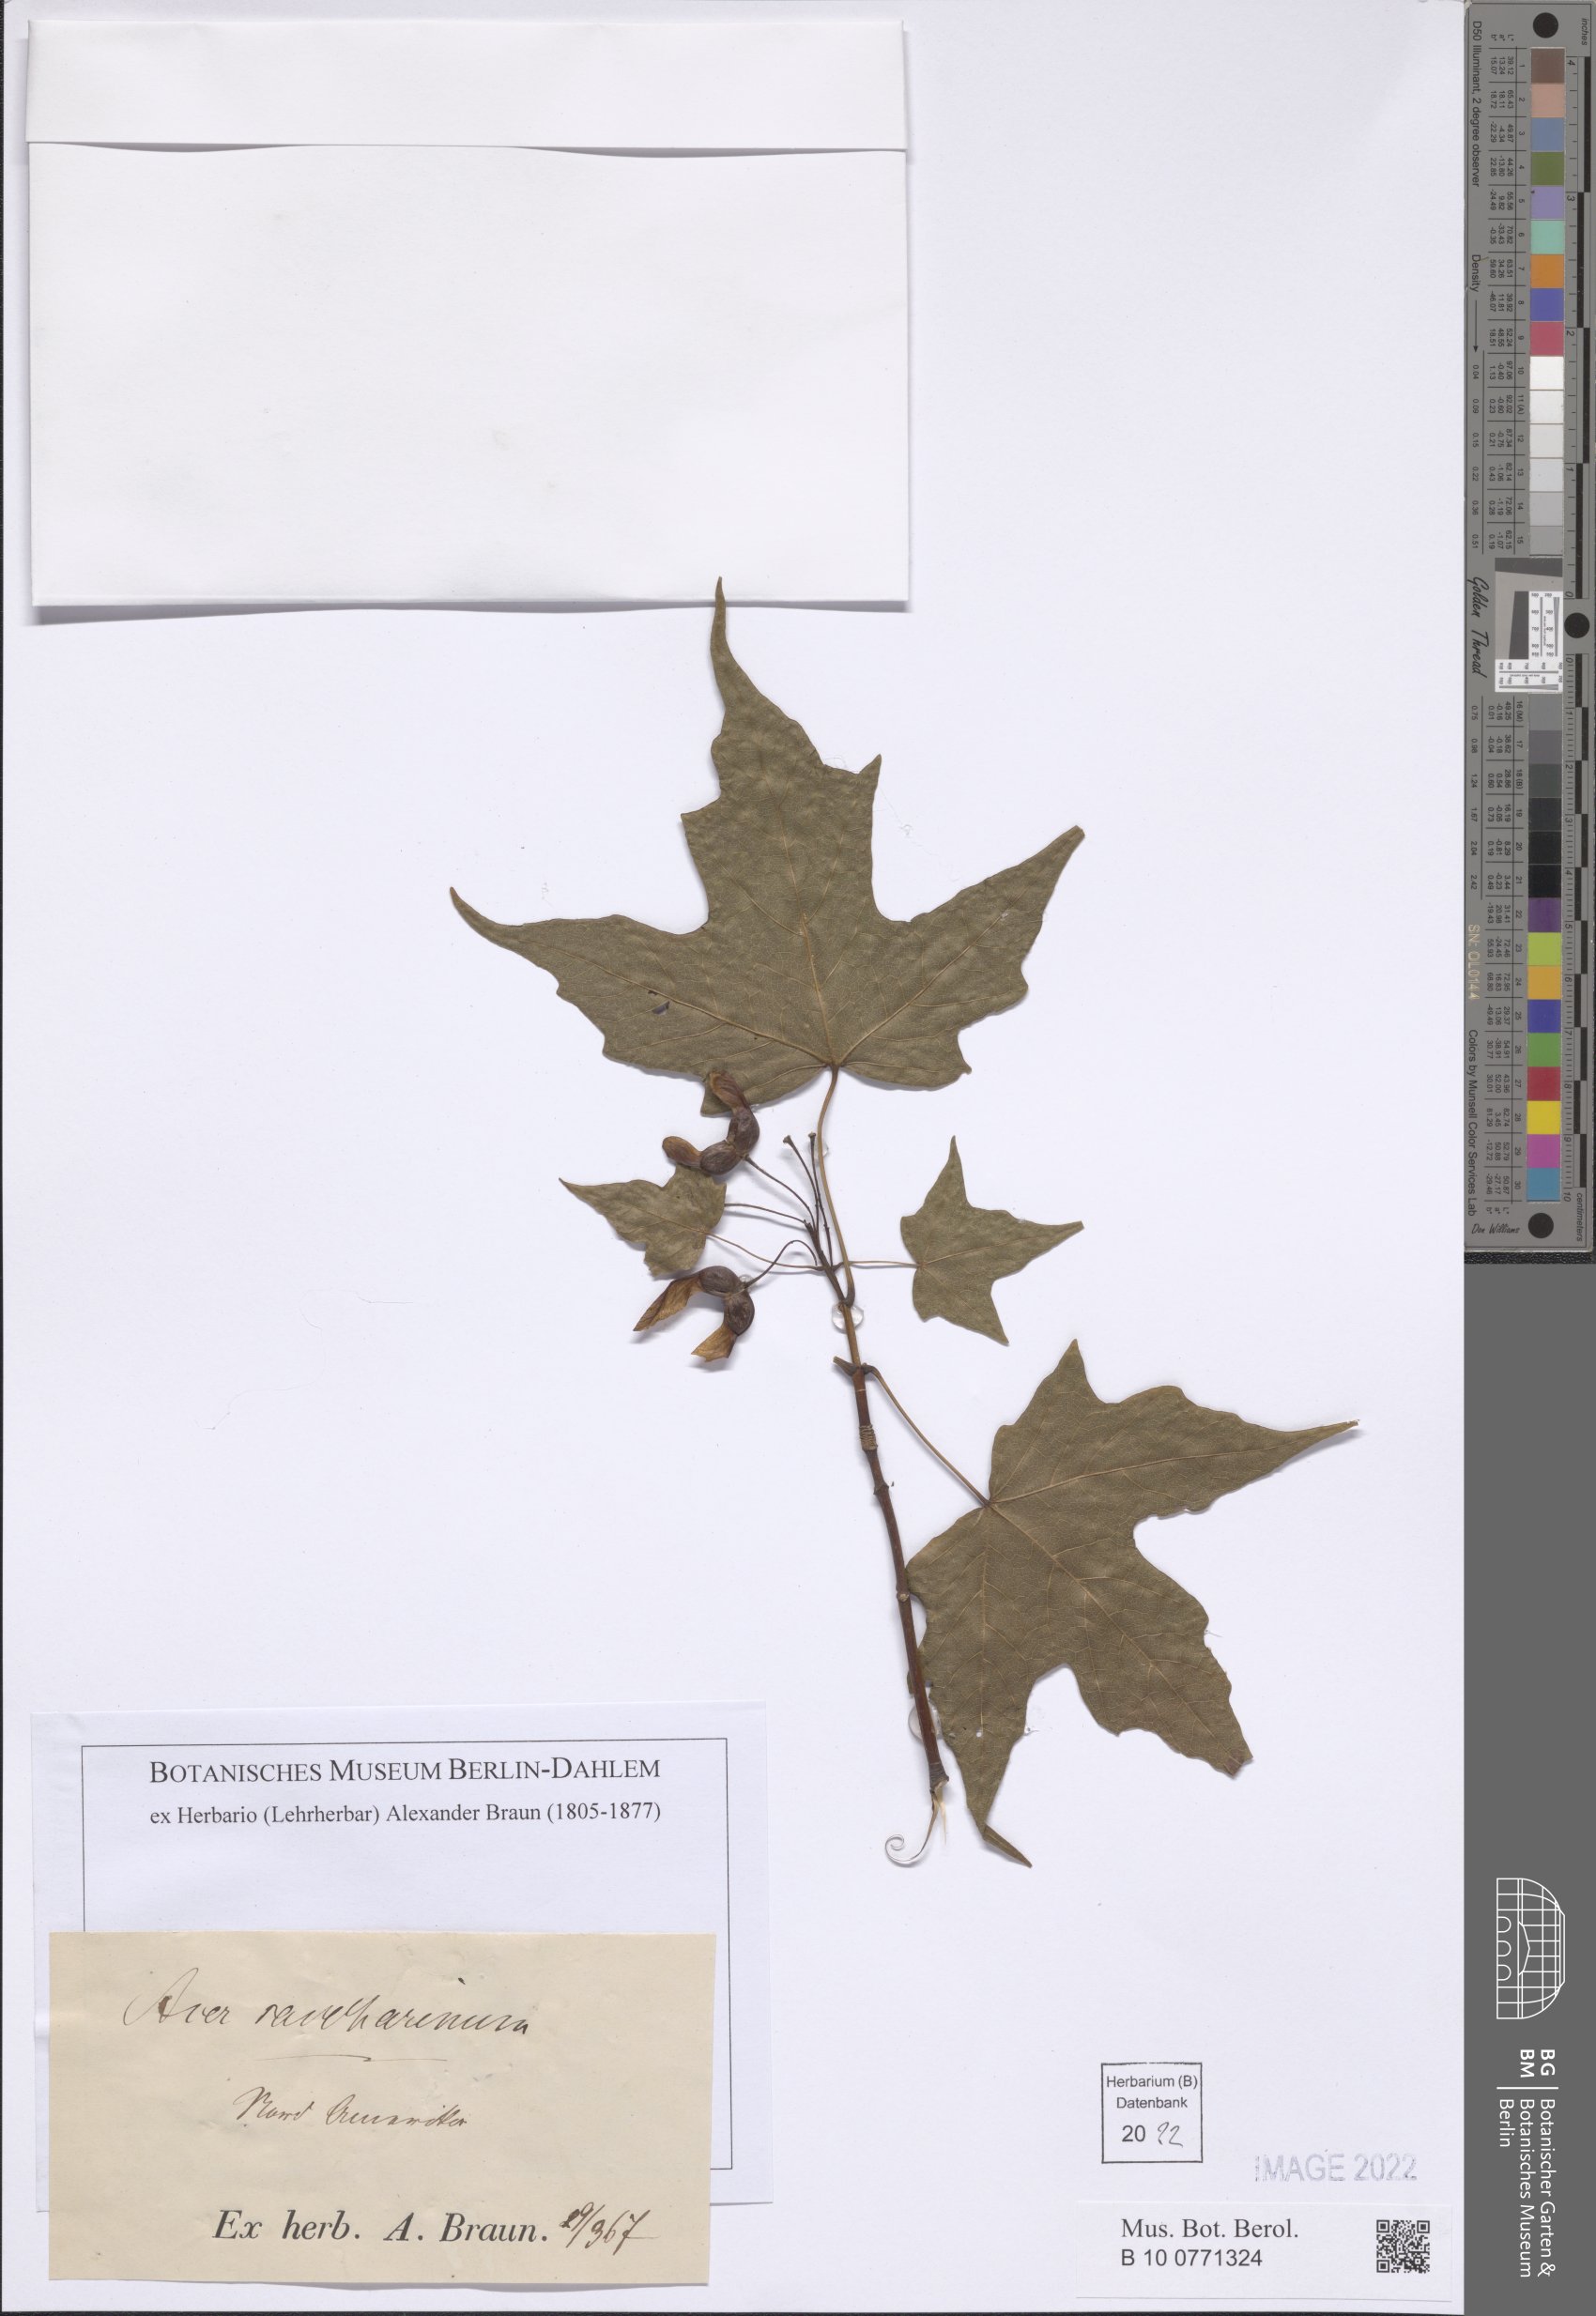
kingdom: Plantae
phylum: Tracheophyta
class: Magnoliopsida
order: Sapindales
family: Sapindaceae
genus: Acer
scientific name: Acer saccharinum
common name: Silver maple
